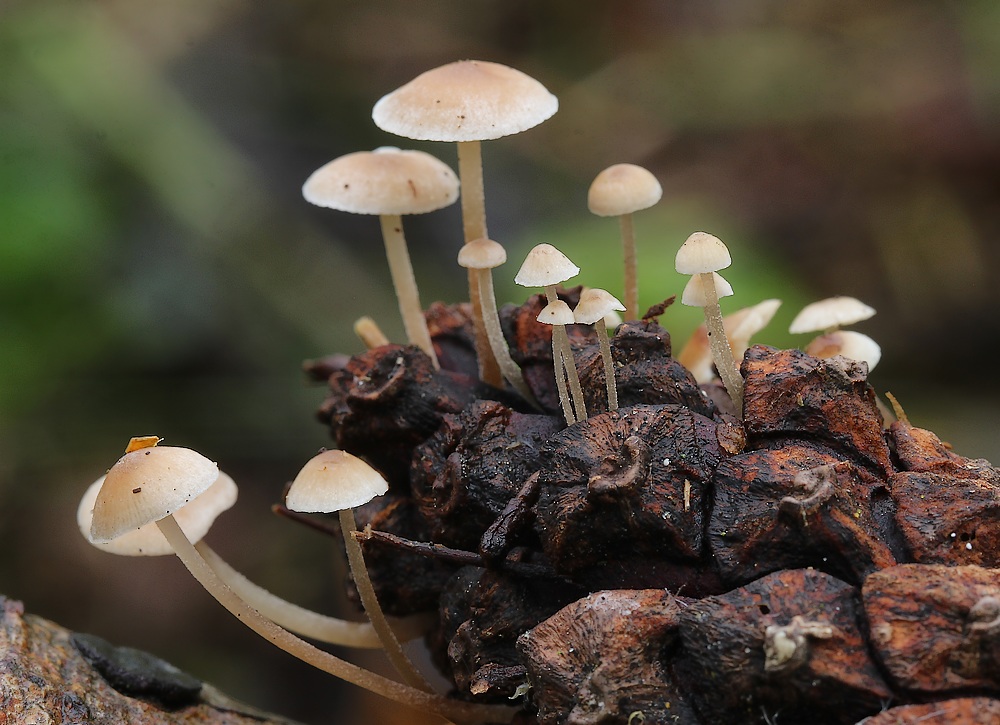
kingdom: Fungi
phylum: Basidiomycota
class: Agaricomycetes
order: Agaricales
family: Marasmiaceae
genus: Baeospora
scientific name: Baeospora myosura
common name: koglebruskhat
